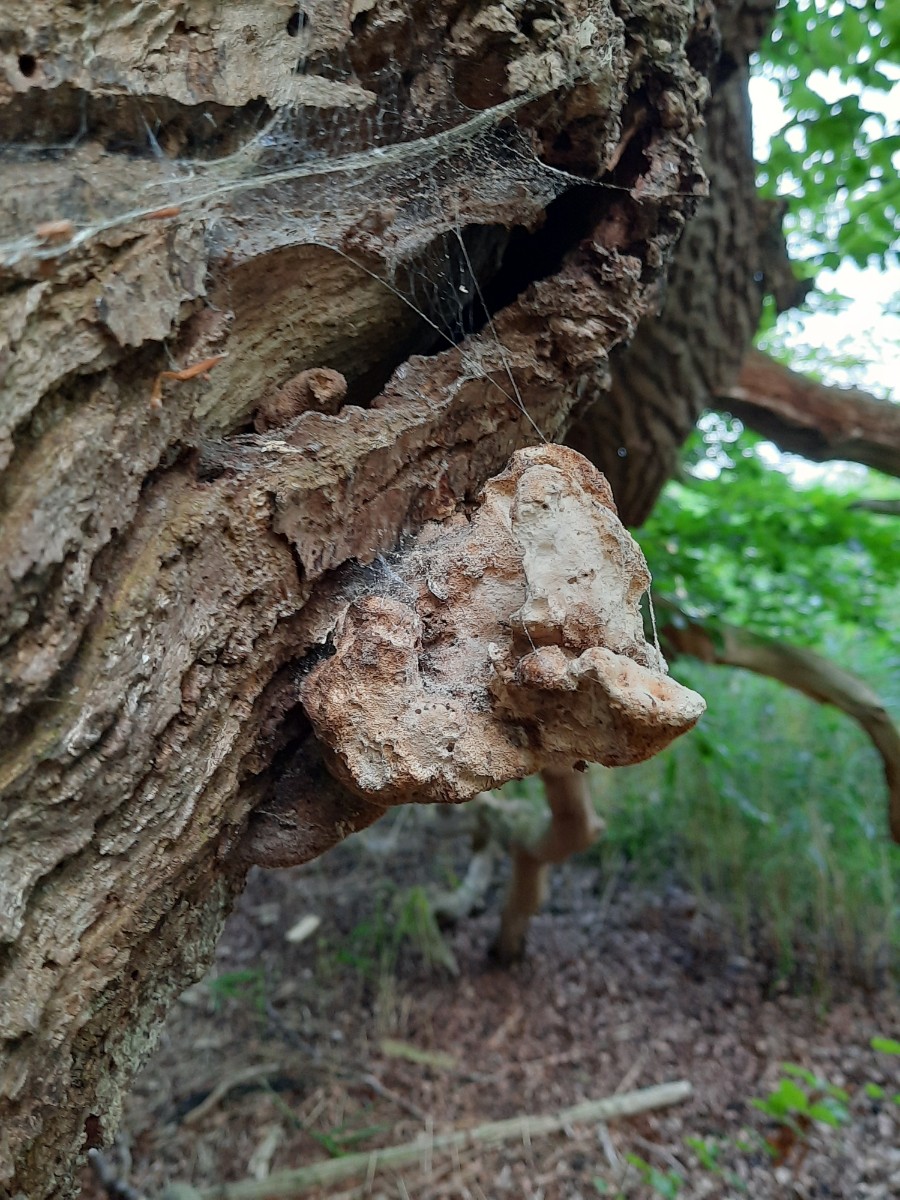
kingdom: Fungi
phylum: Basidiomycota
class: Agaricomycetes
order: Polyporales
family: Laetiporaceae
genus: Laetiporus
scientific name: Laetiporus sulphureus
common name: svovlporesvamp
